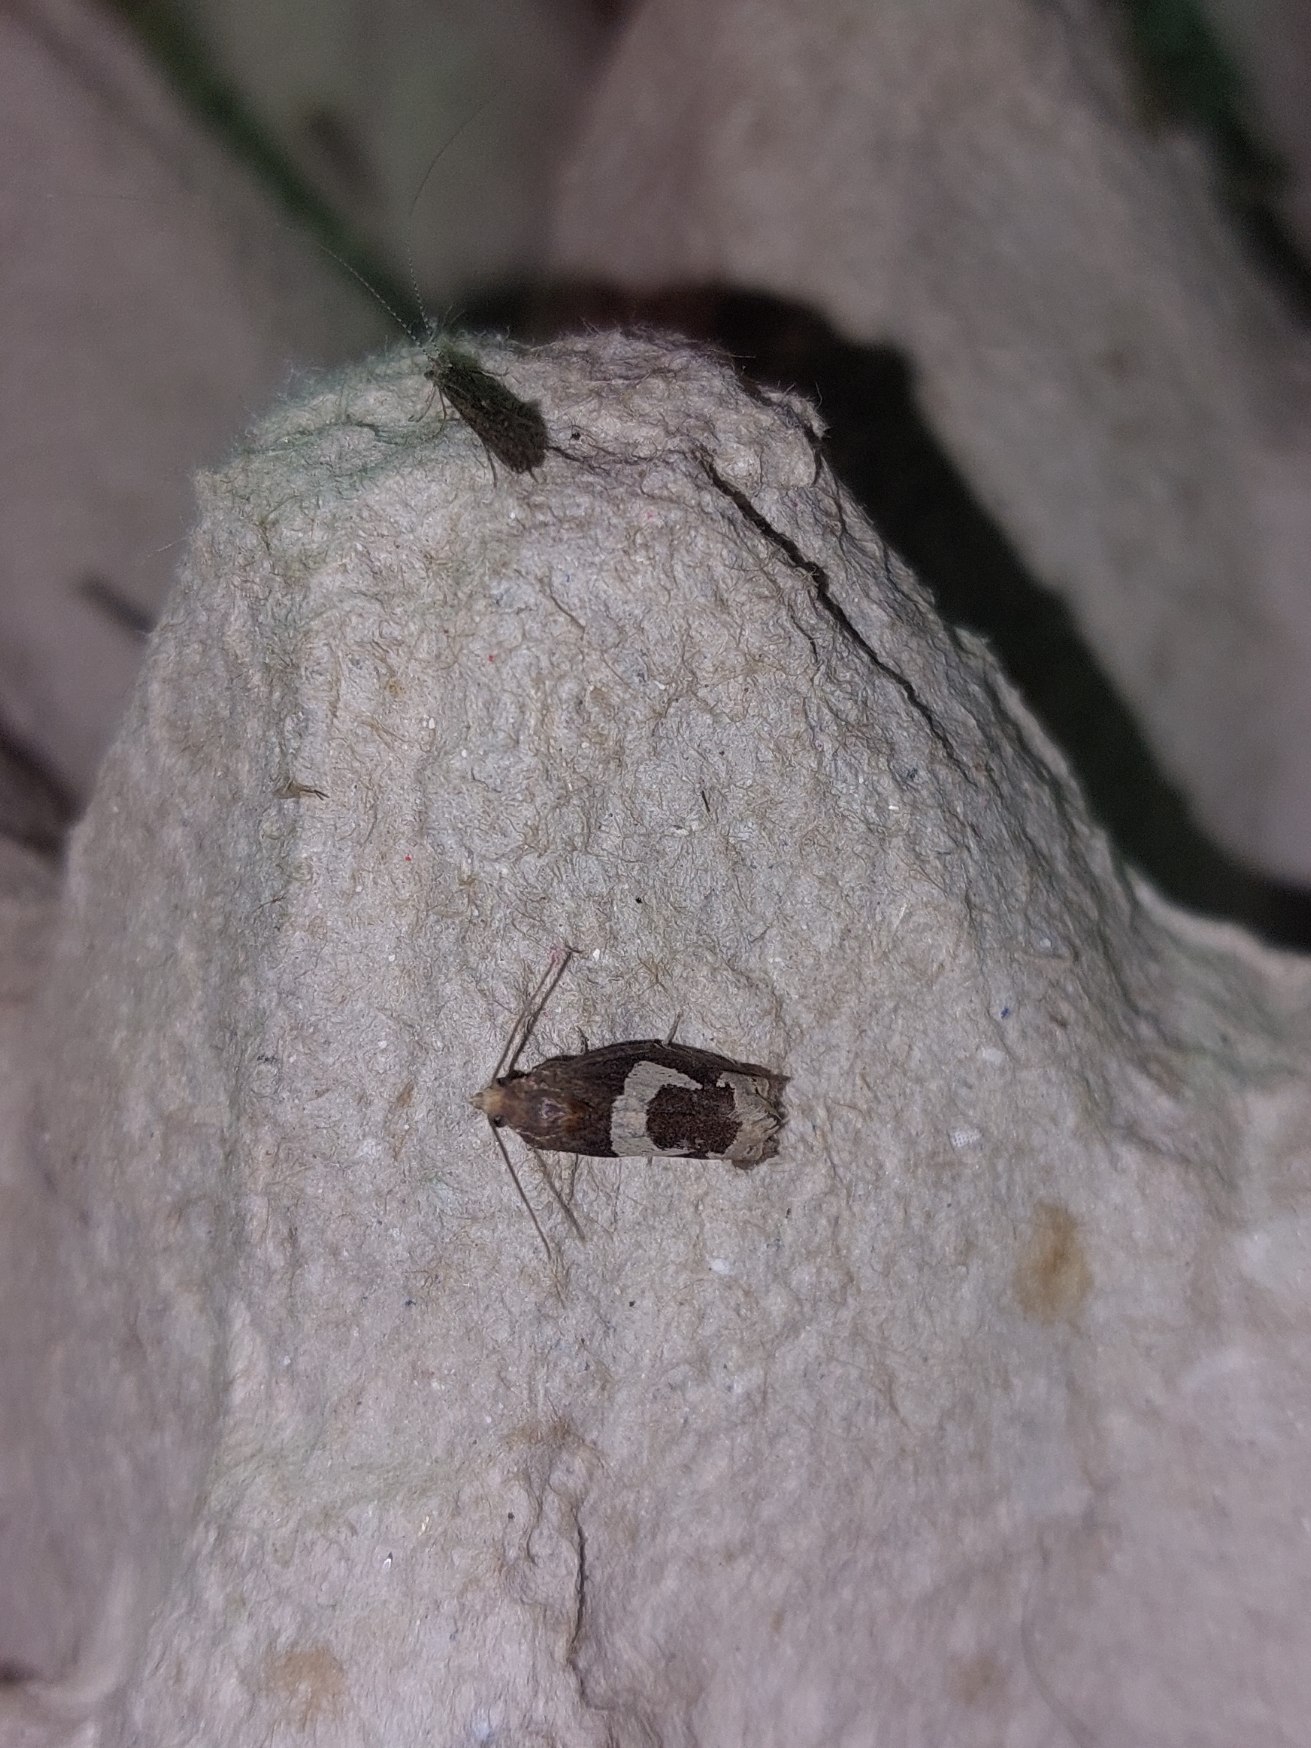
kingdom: Animalia
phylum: Arthropoda
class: Insecta
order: Lepidoptera
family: Tortricidae
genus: Epiblema
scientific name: Epiblema foenella
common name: Gråbynkegallevikler
